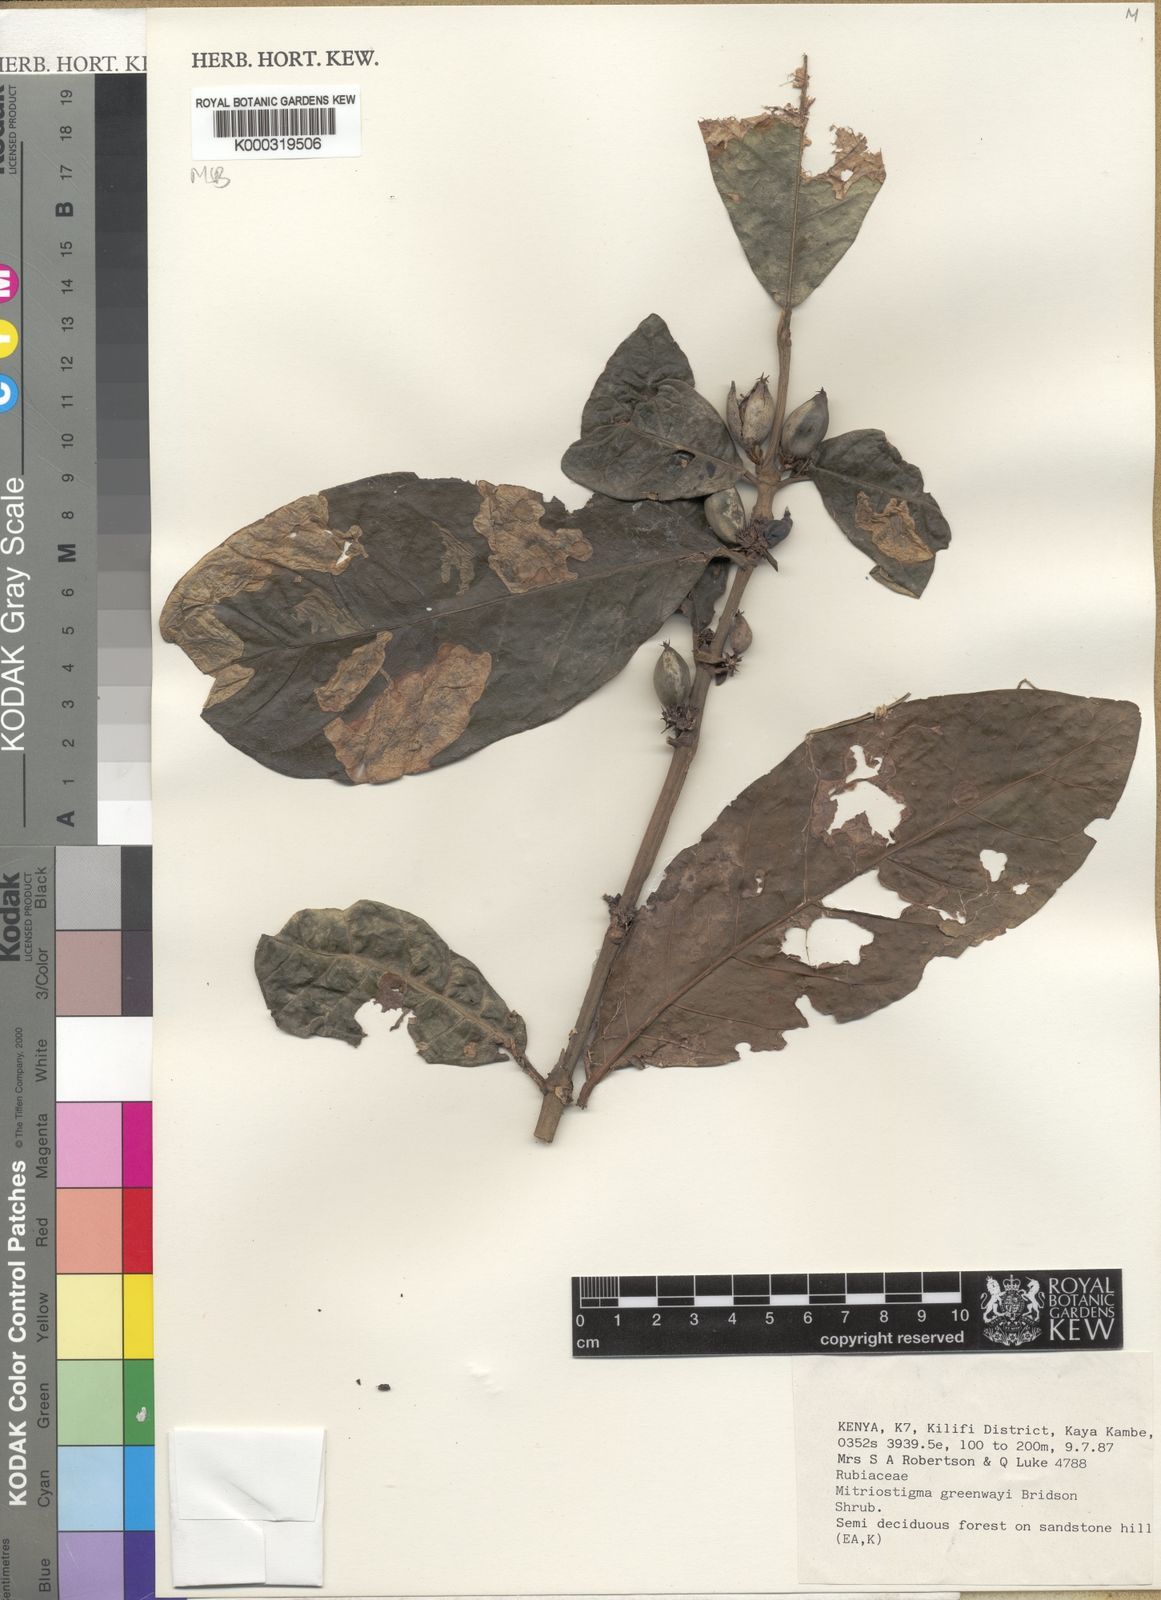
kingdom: Plantae
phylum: Tracheophyta
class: Magnoliopsida
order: Gentianales
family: Rubiaceae
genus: Mitriostigma
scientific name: Mitriostigma greenwayi
